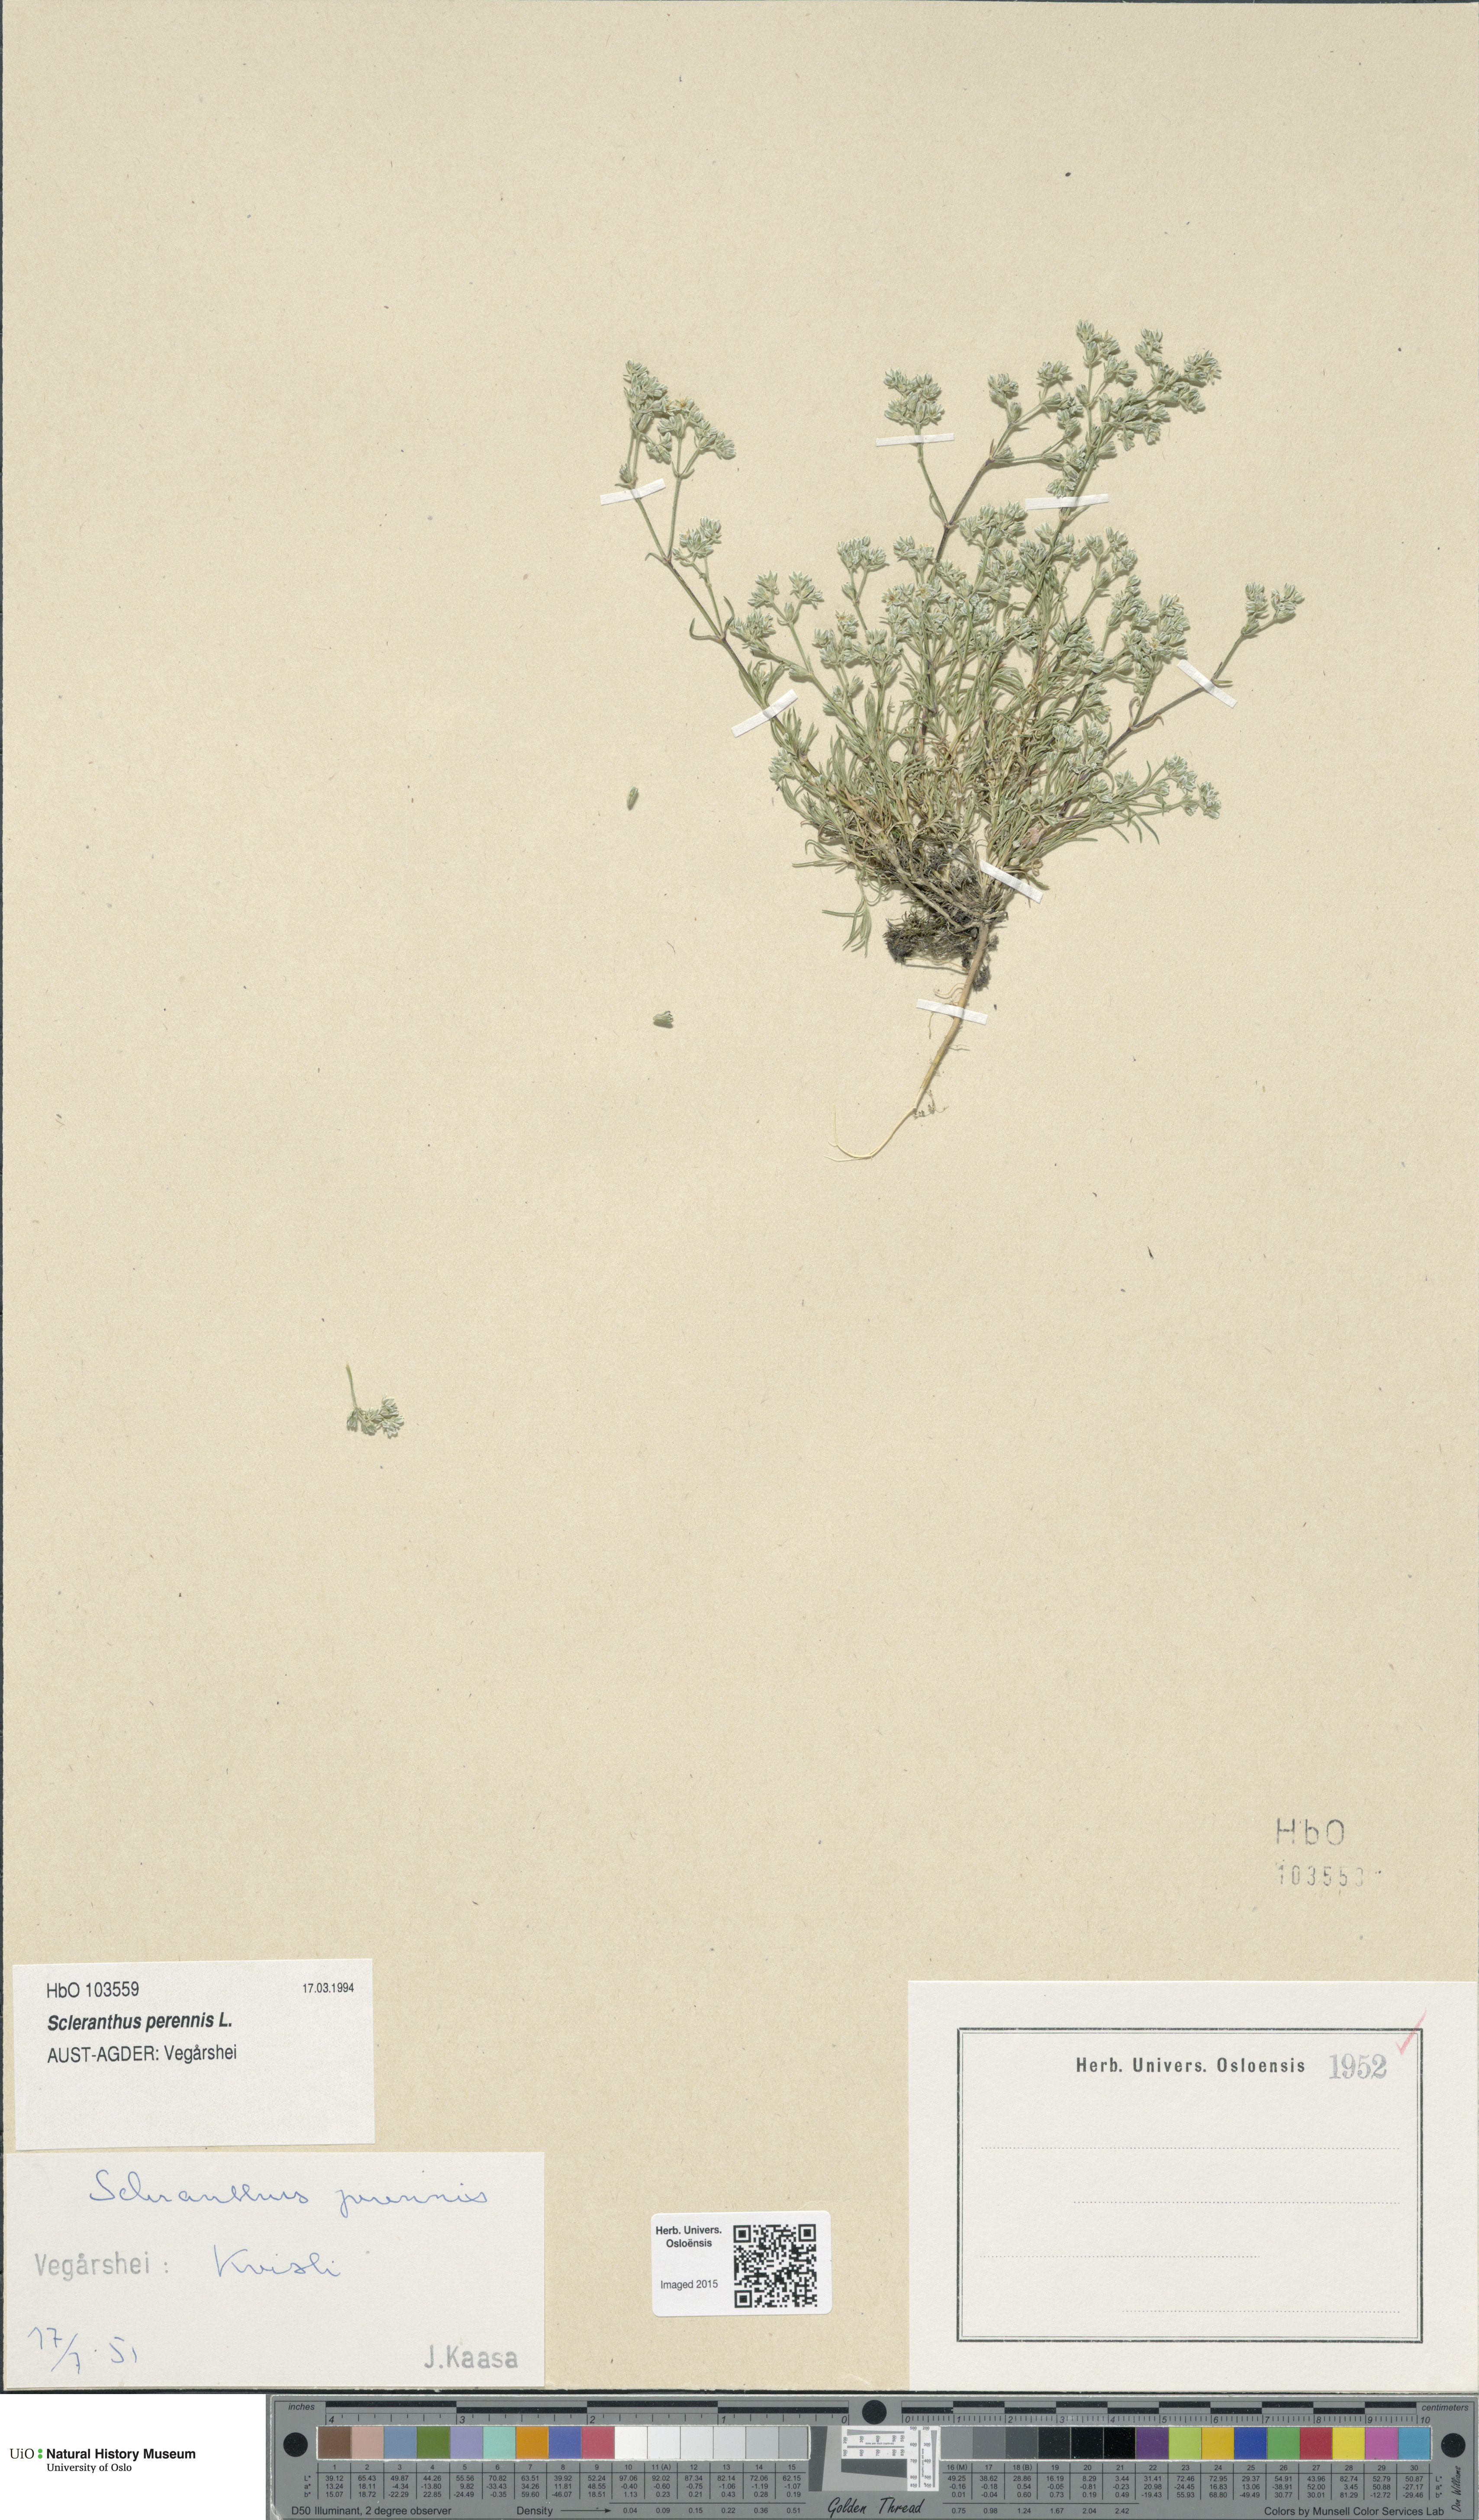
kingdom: Plantae
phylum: Tracheophyta
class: Magnoliopsida
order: Caryophyllales
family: Caryophyllaceae
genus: Scleranthus
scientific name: Scleranthus perennis
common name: Perennial knawel
